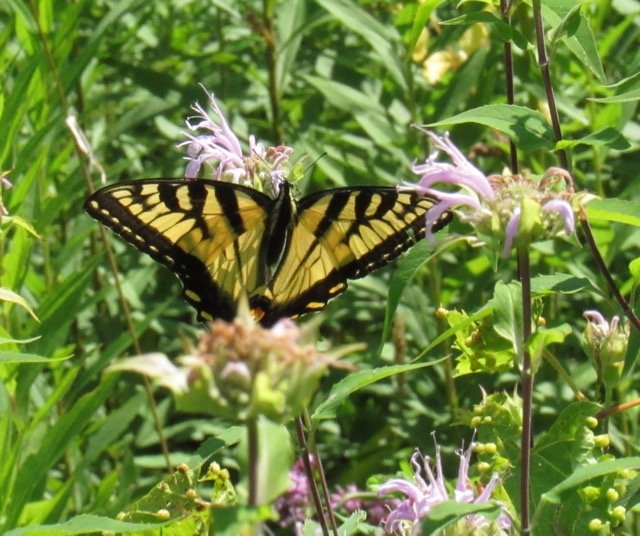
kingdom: Animalia
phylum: Arthropoda
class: Insecta
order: Lepidoptera
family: Papilionidae
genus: Pterourus
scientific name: Pterourus
